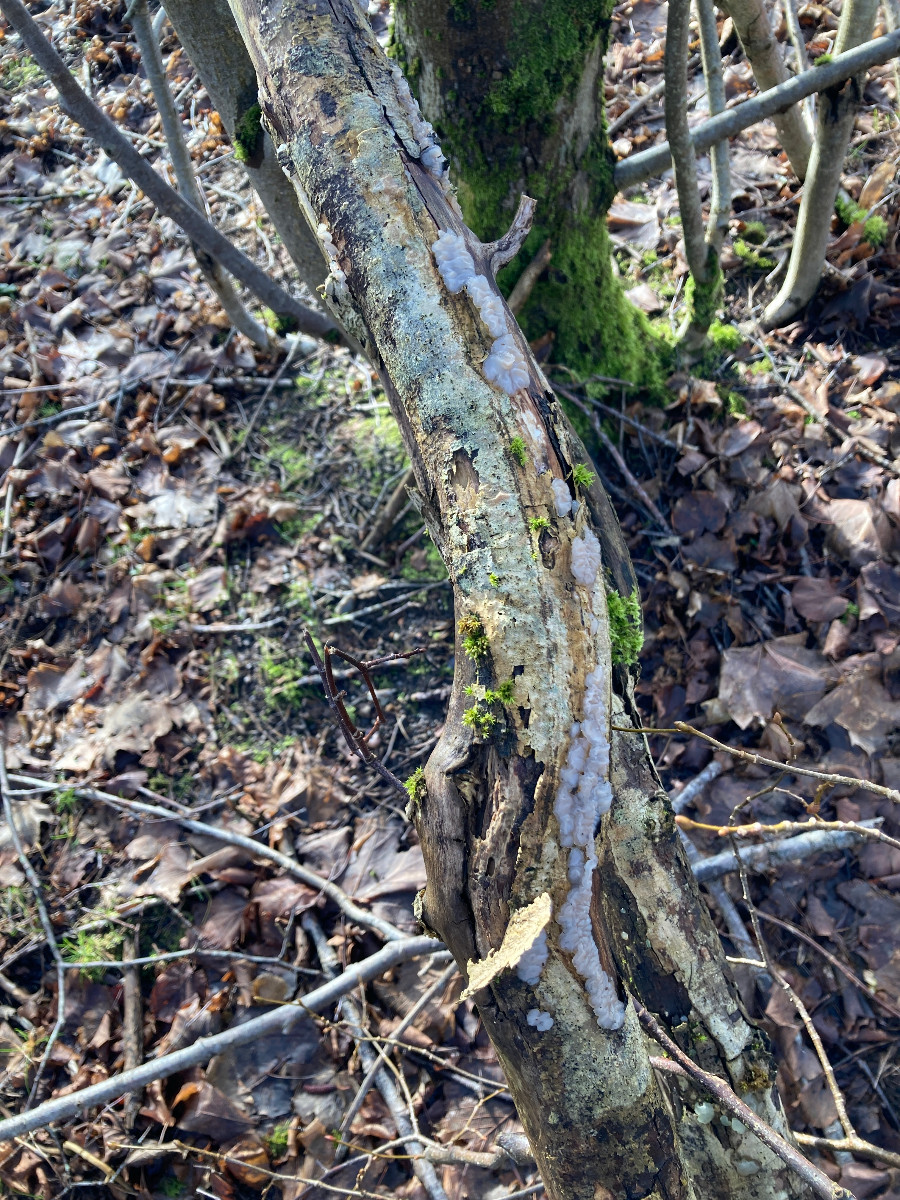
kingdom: Fungi
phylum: Basidiomycota
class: Agaricomycetes
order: Auriculariales
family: Auriculariaceae
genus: Exidia
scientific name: Exidia thuretiana
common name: hvidlig bævretop
